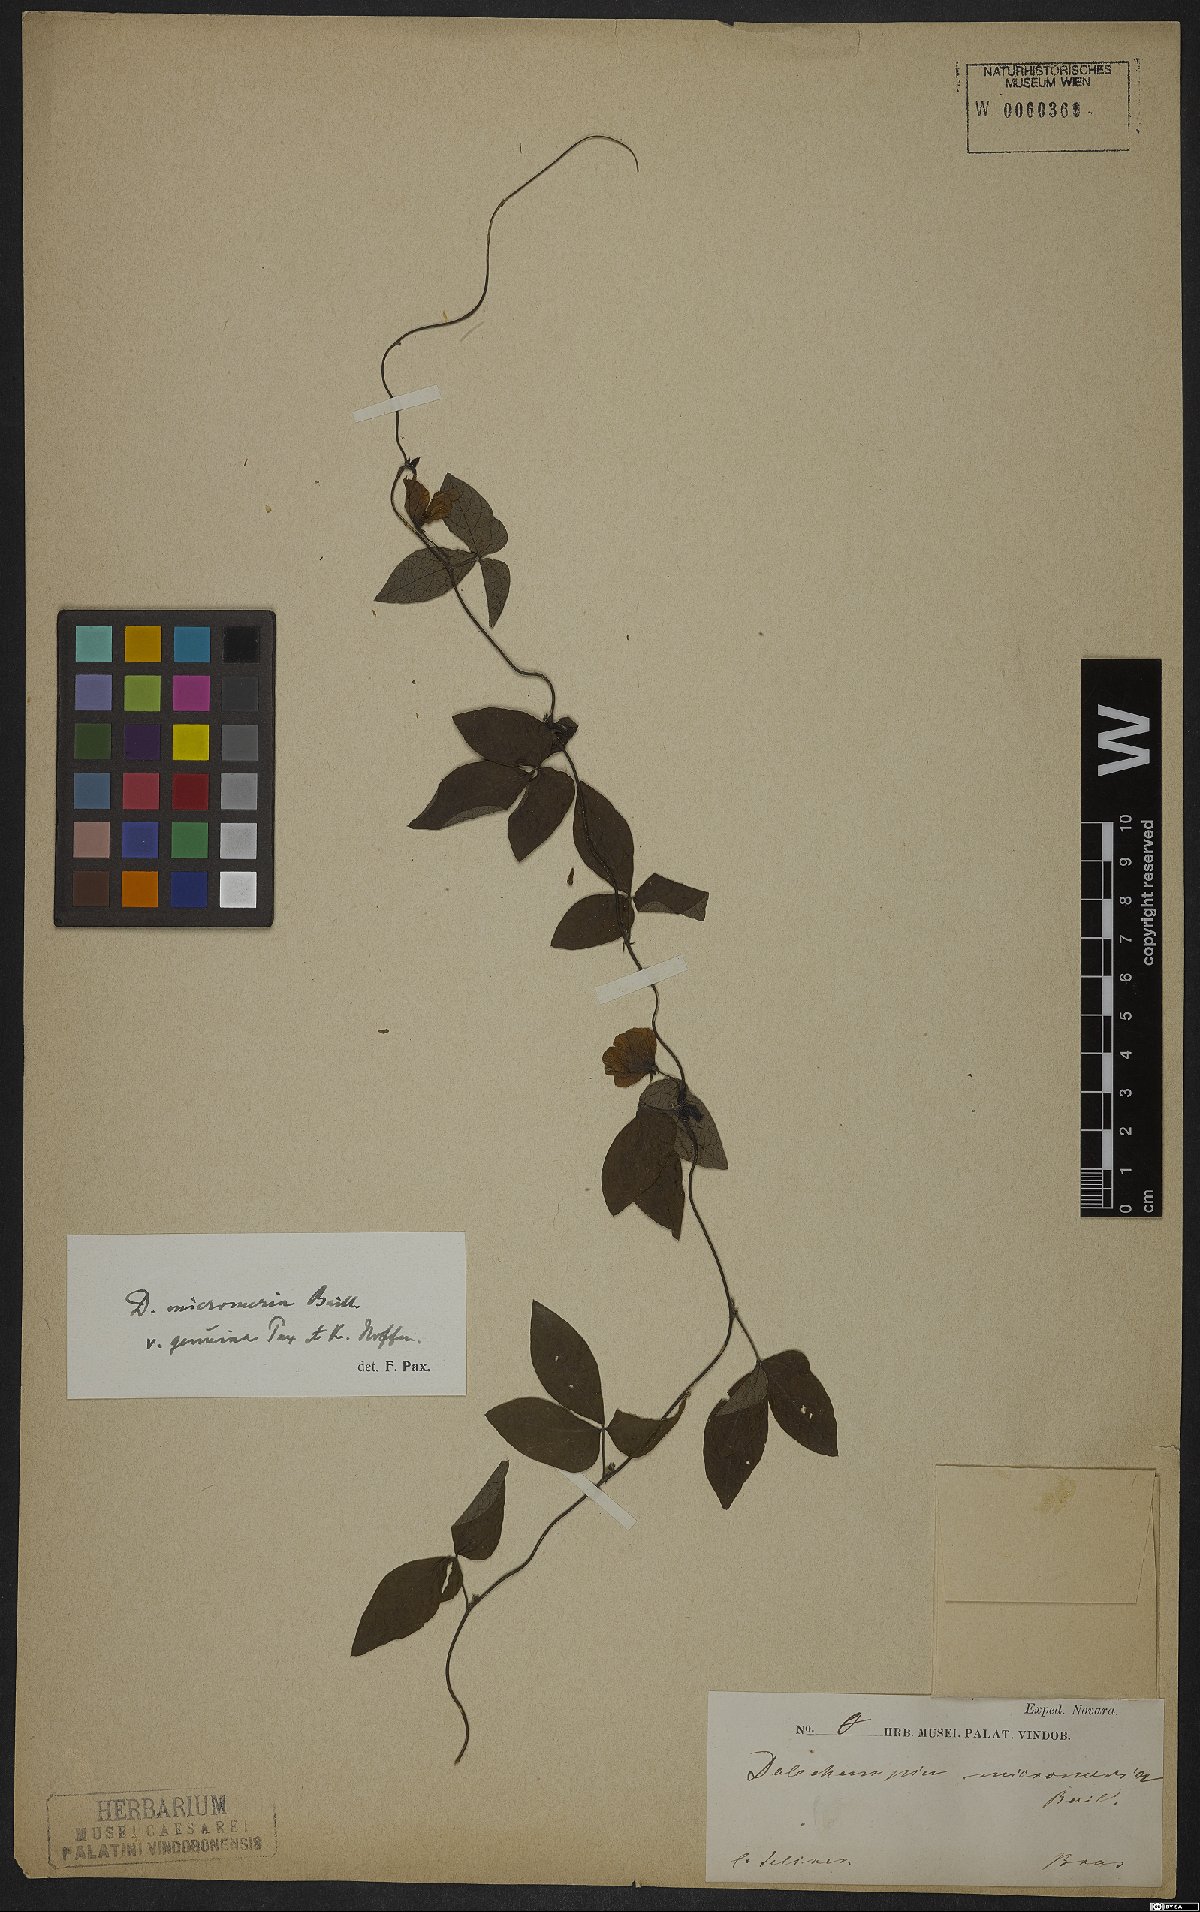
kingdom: Plantae
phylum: Tracheophyta
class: Magnoliopsida
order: Malpighiales
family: Euphorbiaceae
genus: Dalechampia
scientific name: Dalechampia micromeria
